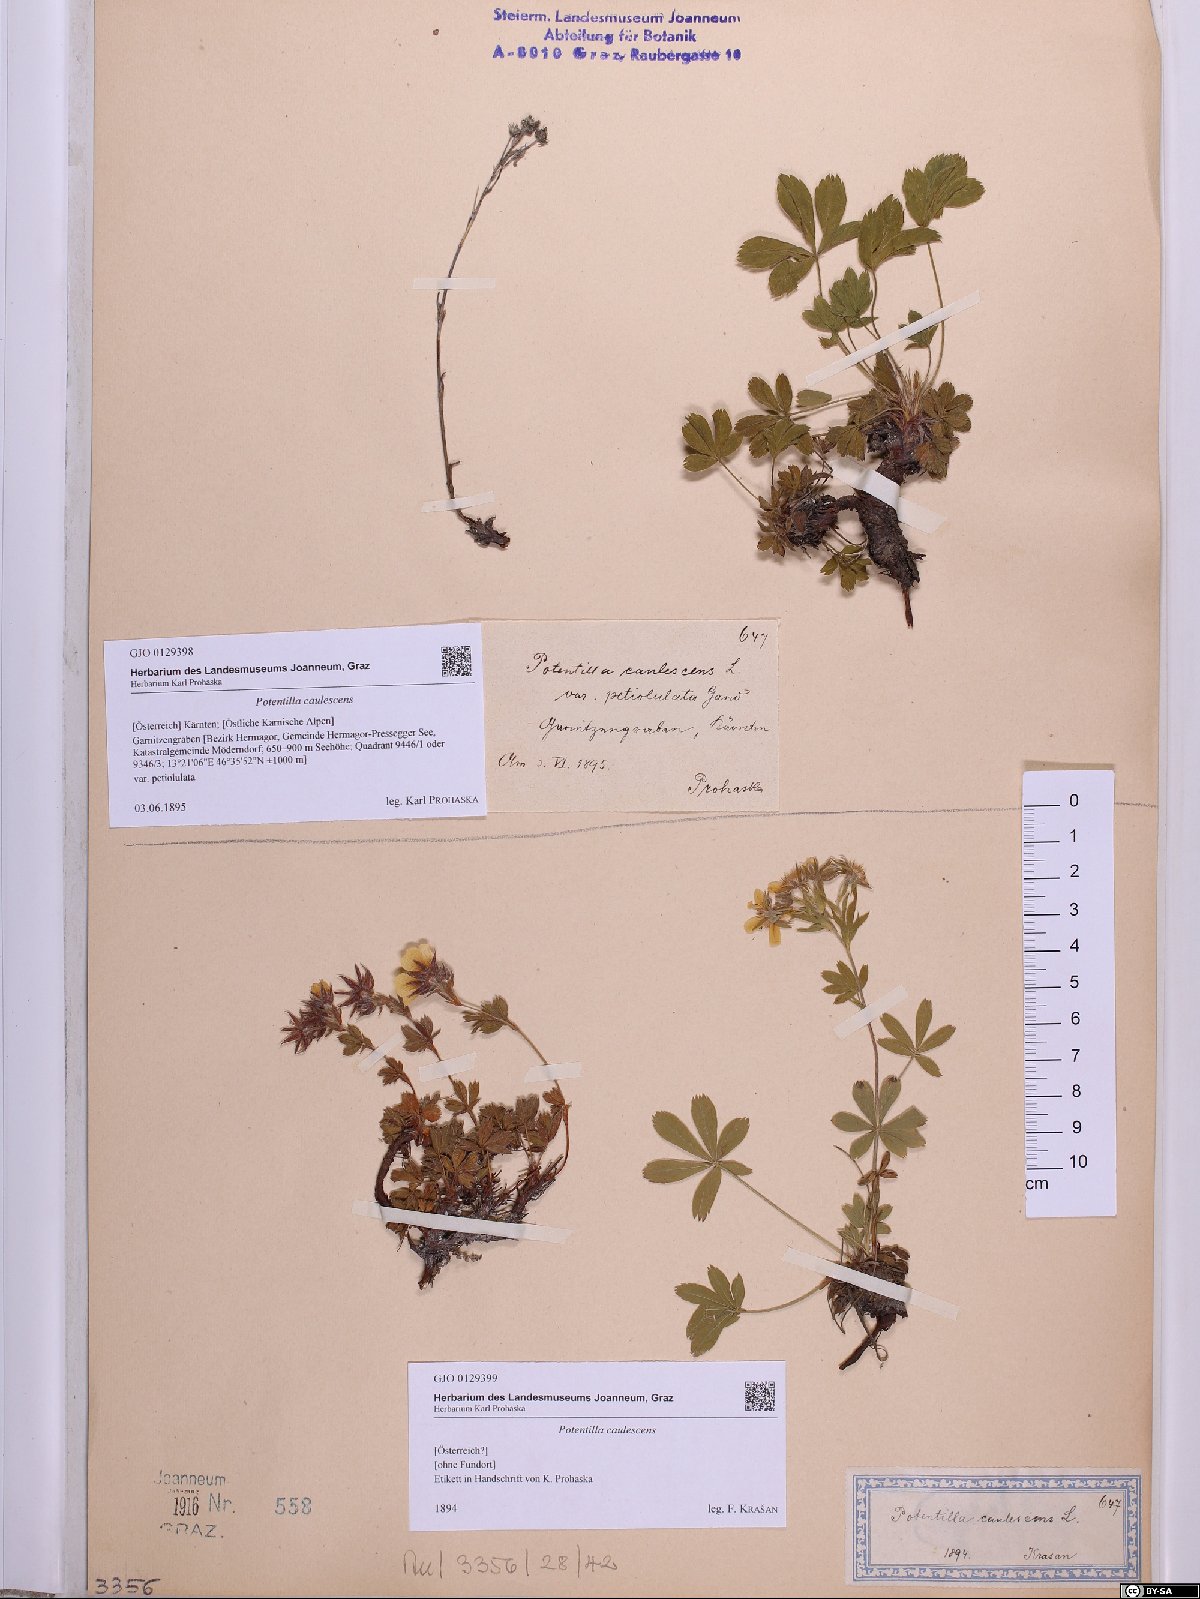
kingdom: Plantae
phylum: Tracheophyta
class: Magnoliopsida
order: Rosales
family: Rosaceae
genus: Potentilla
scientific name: Potentilla caulescens
